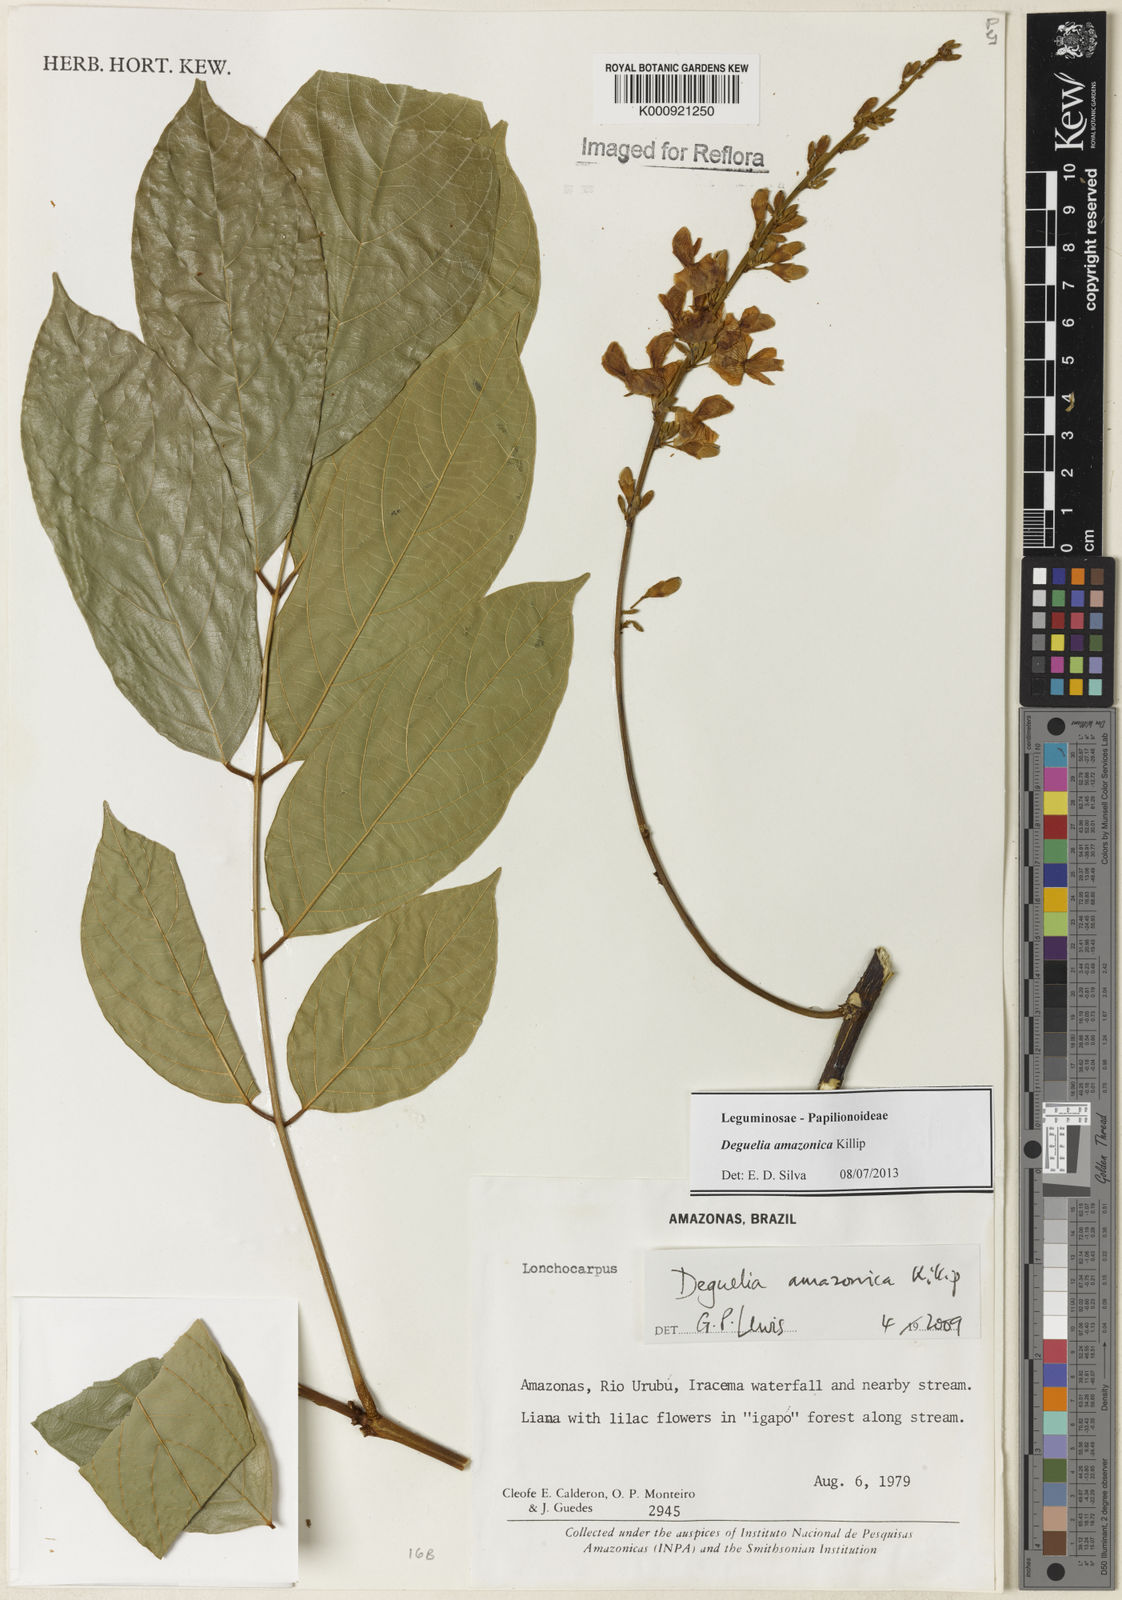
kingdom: Plantae
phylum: Tracheophyta
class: Magnoliopsida
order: Fabales
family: Fabaceae
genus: Deguelia
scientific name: Deguelia amazonica
